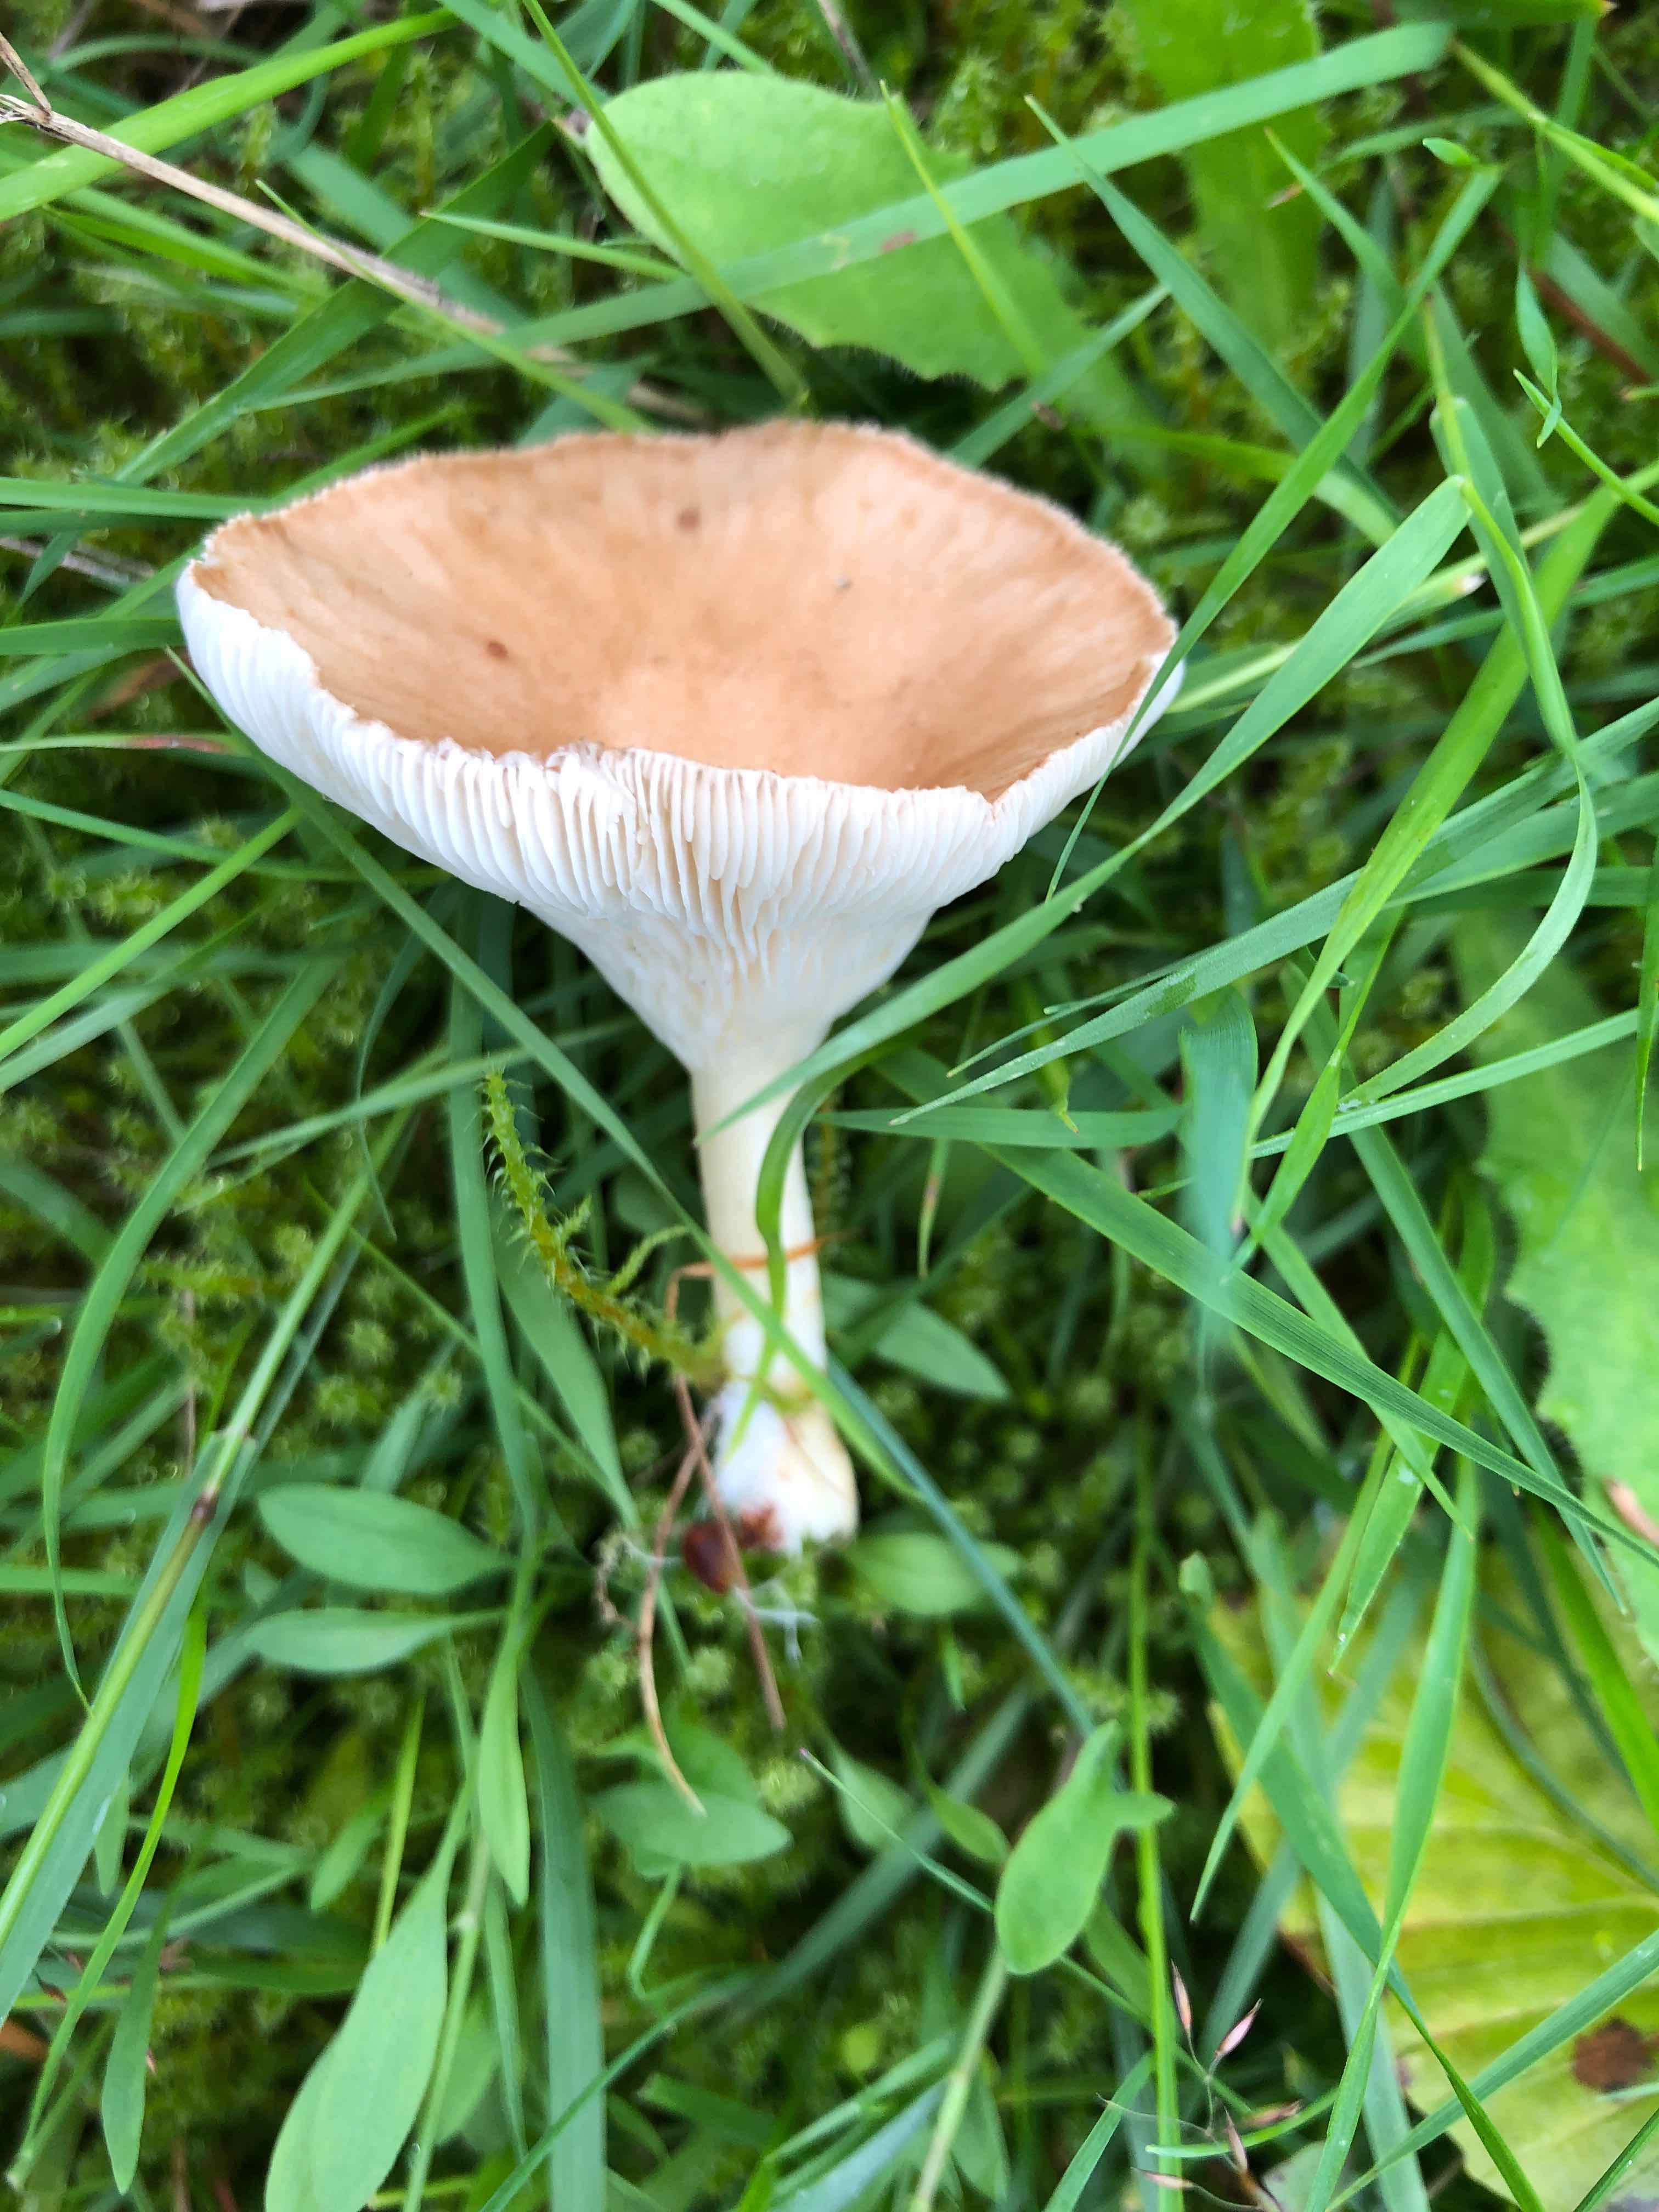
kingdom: Fungi
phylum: Basidiomycota
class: Agaricomycetes
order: Agaricales
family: Tricholomataceae
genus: Infundibulicybe
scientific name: Infundibulicybe gibba
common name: almindelig tragthat
